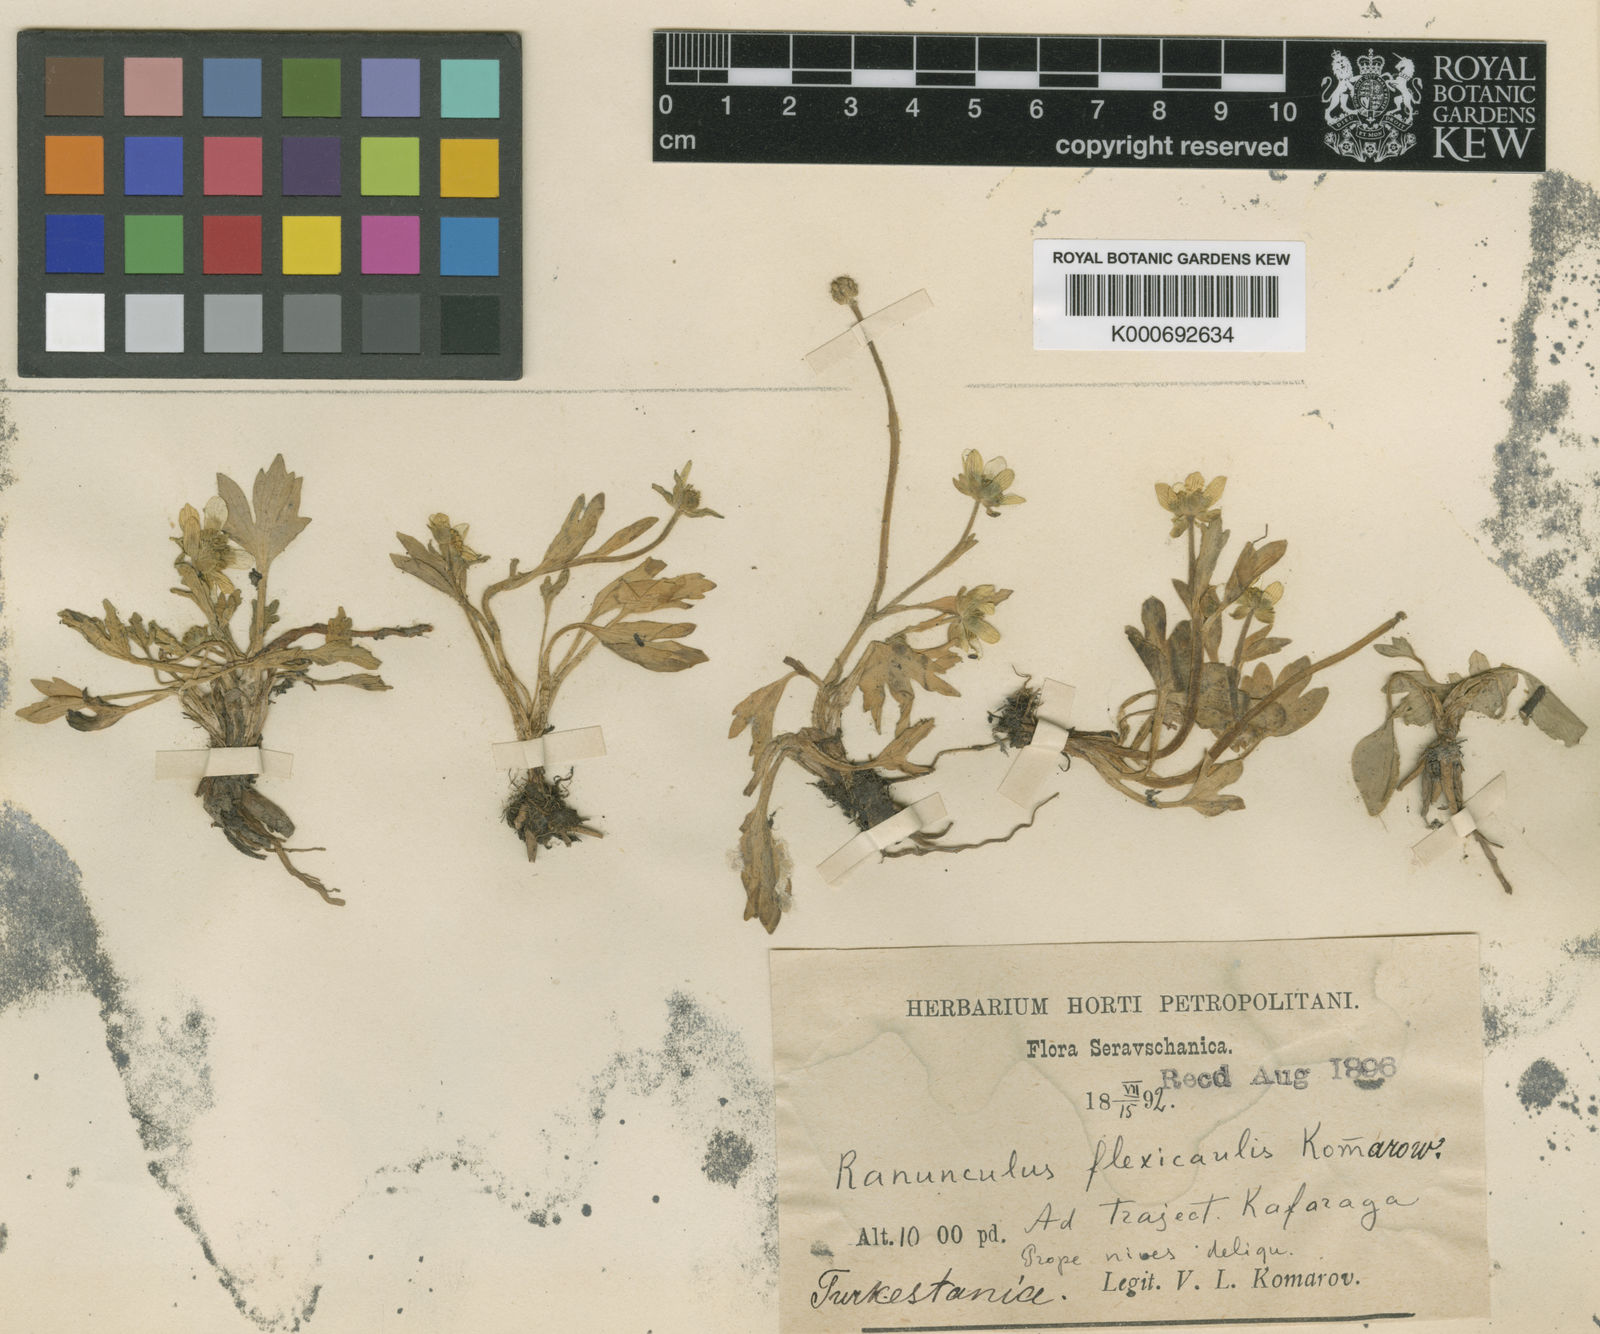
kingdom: Plantae
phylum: Tracheophyta
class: Magnoliopsida
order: Ranunculales
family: Ranunculaceae
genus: Ranunculus
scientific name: Ranunculus alaiensis
